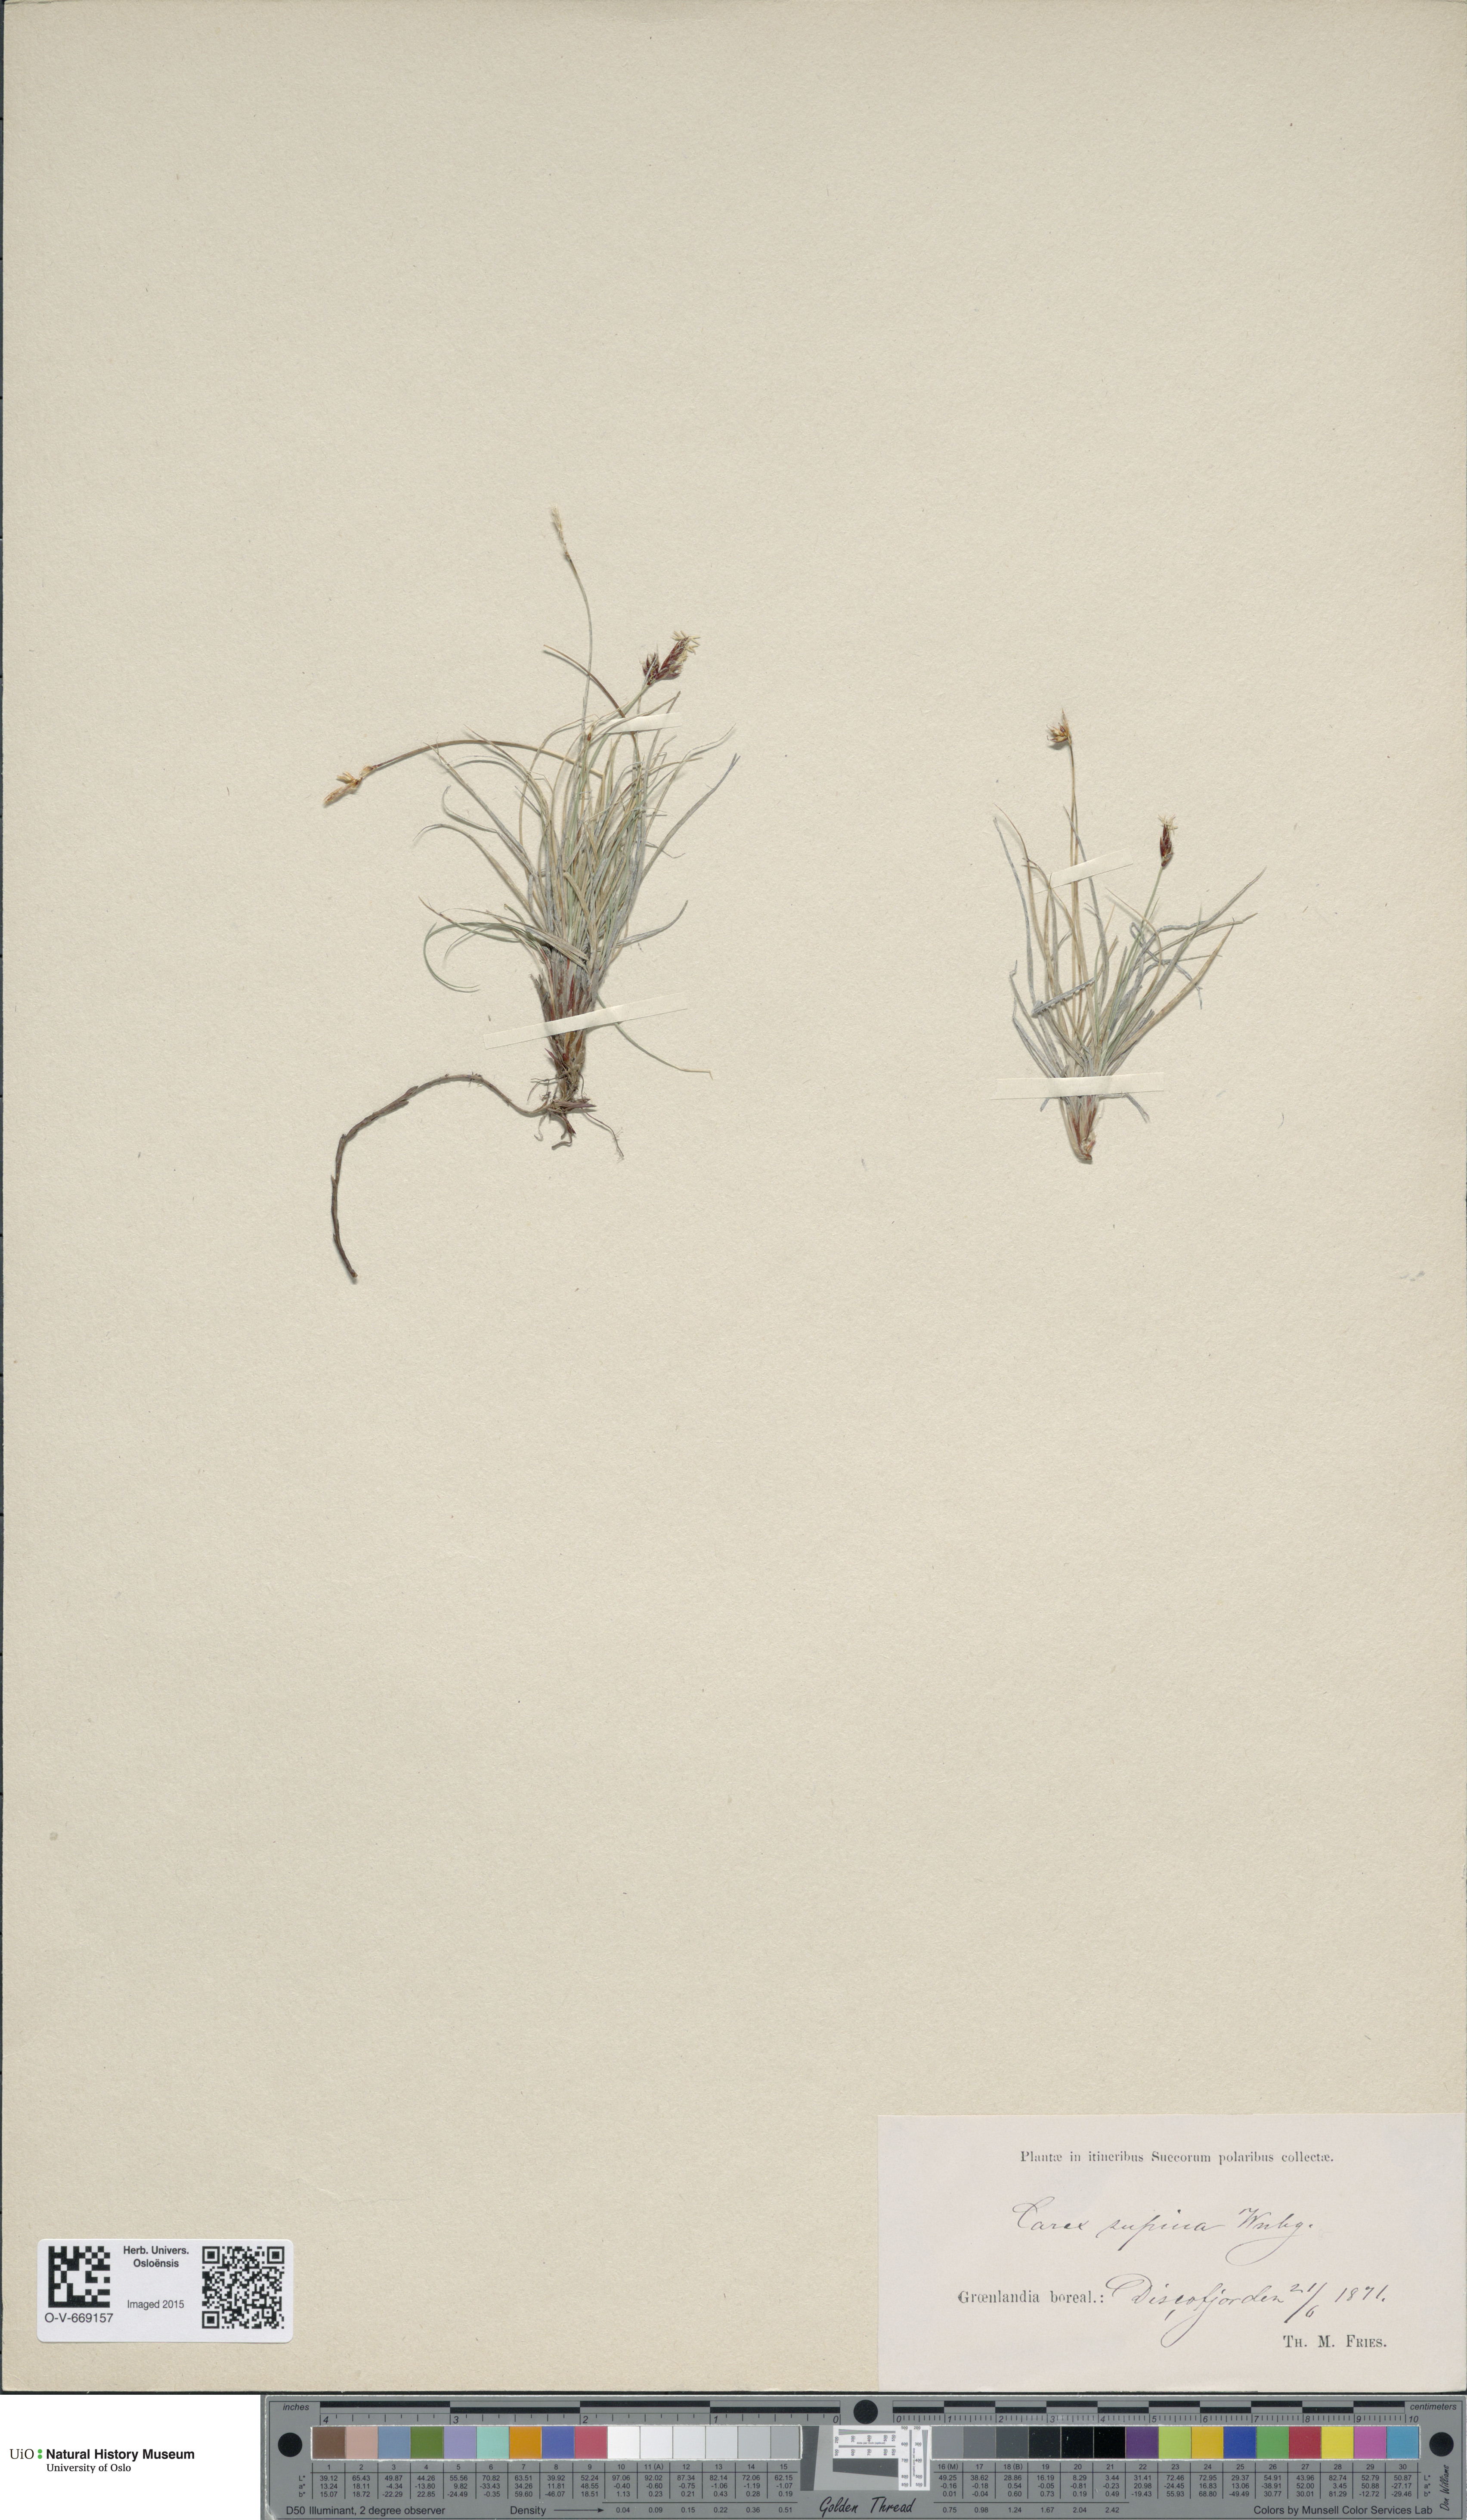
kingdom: Plantae
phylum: Tracheophyta
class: Liliopsida
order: Poales
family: Cyperaceae
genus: Carex
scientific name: Carex supina
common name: Lying-back sedge
